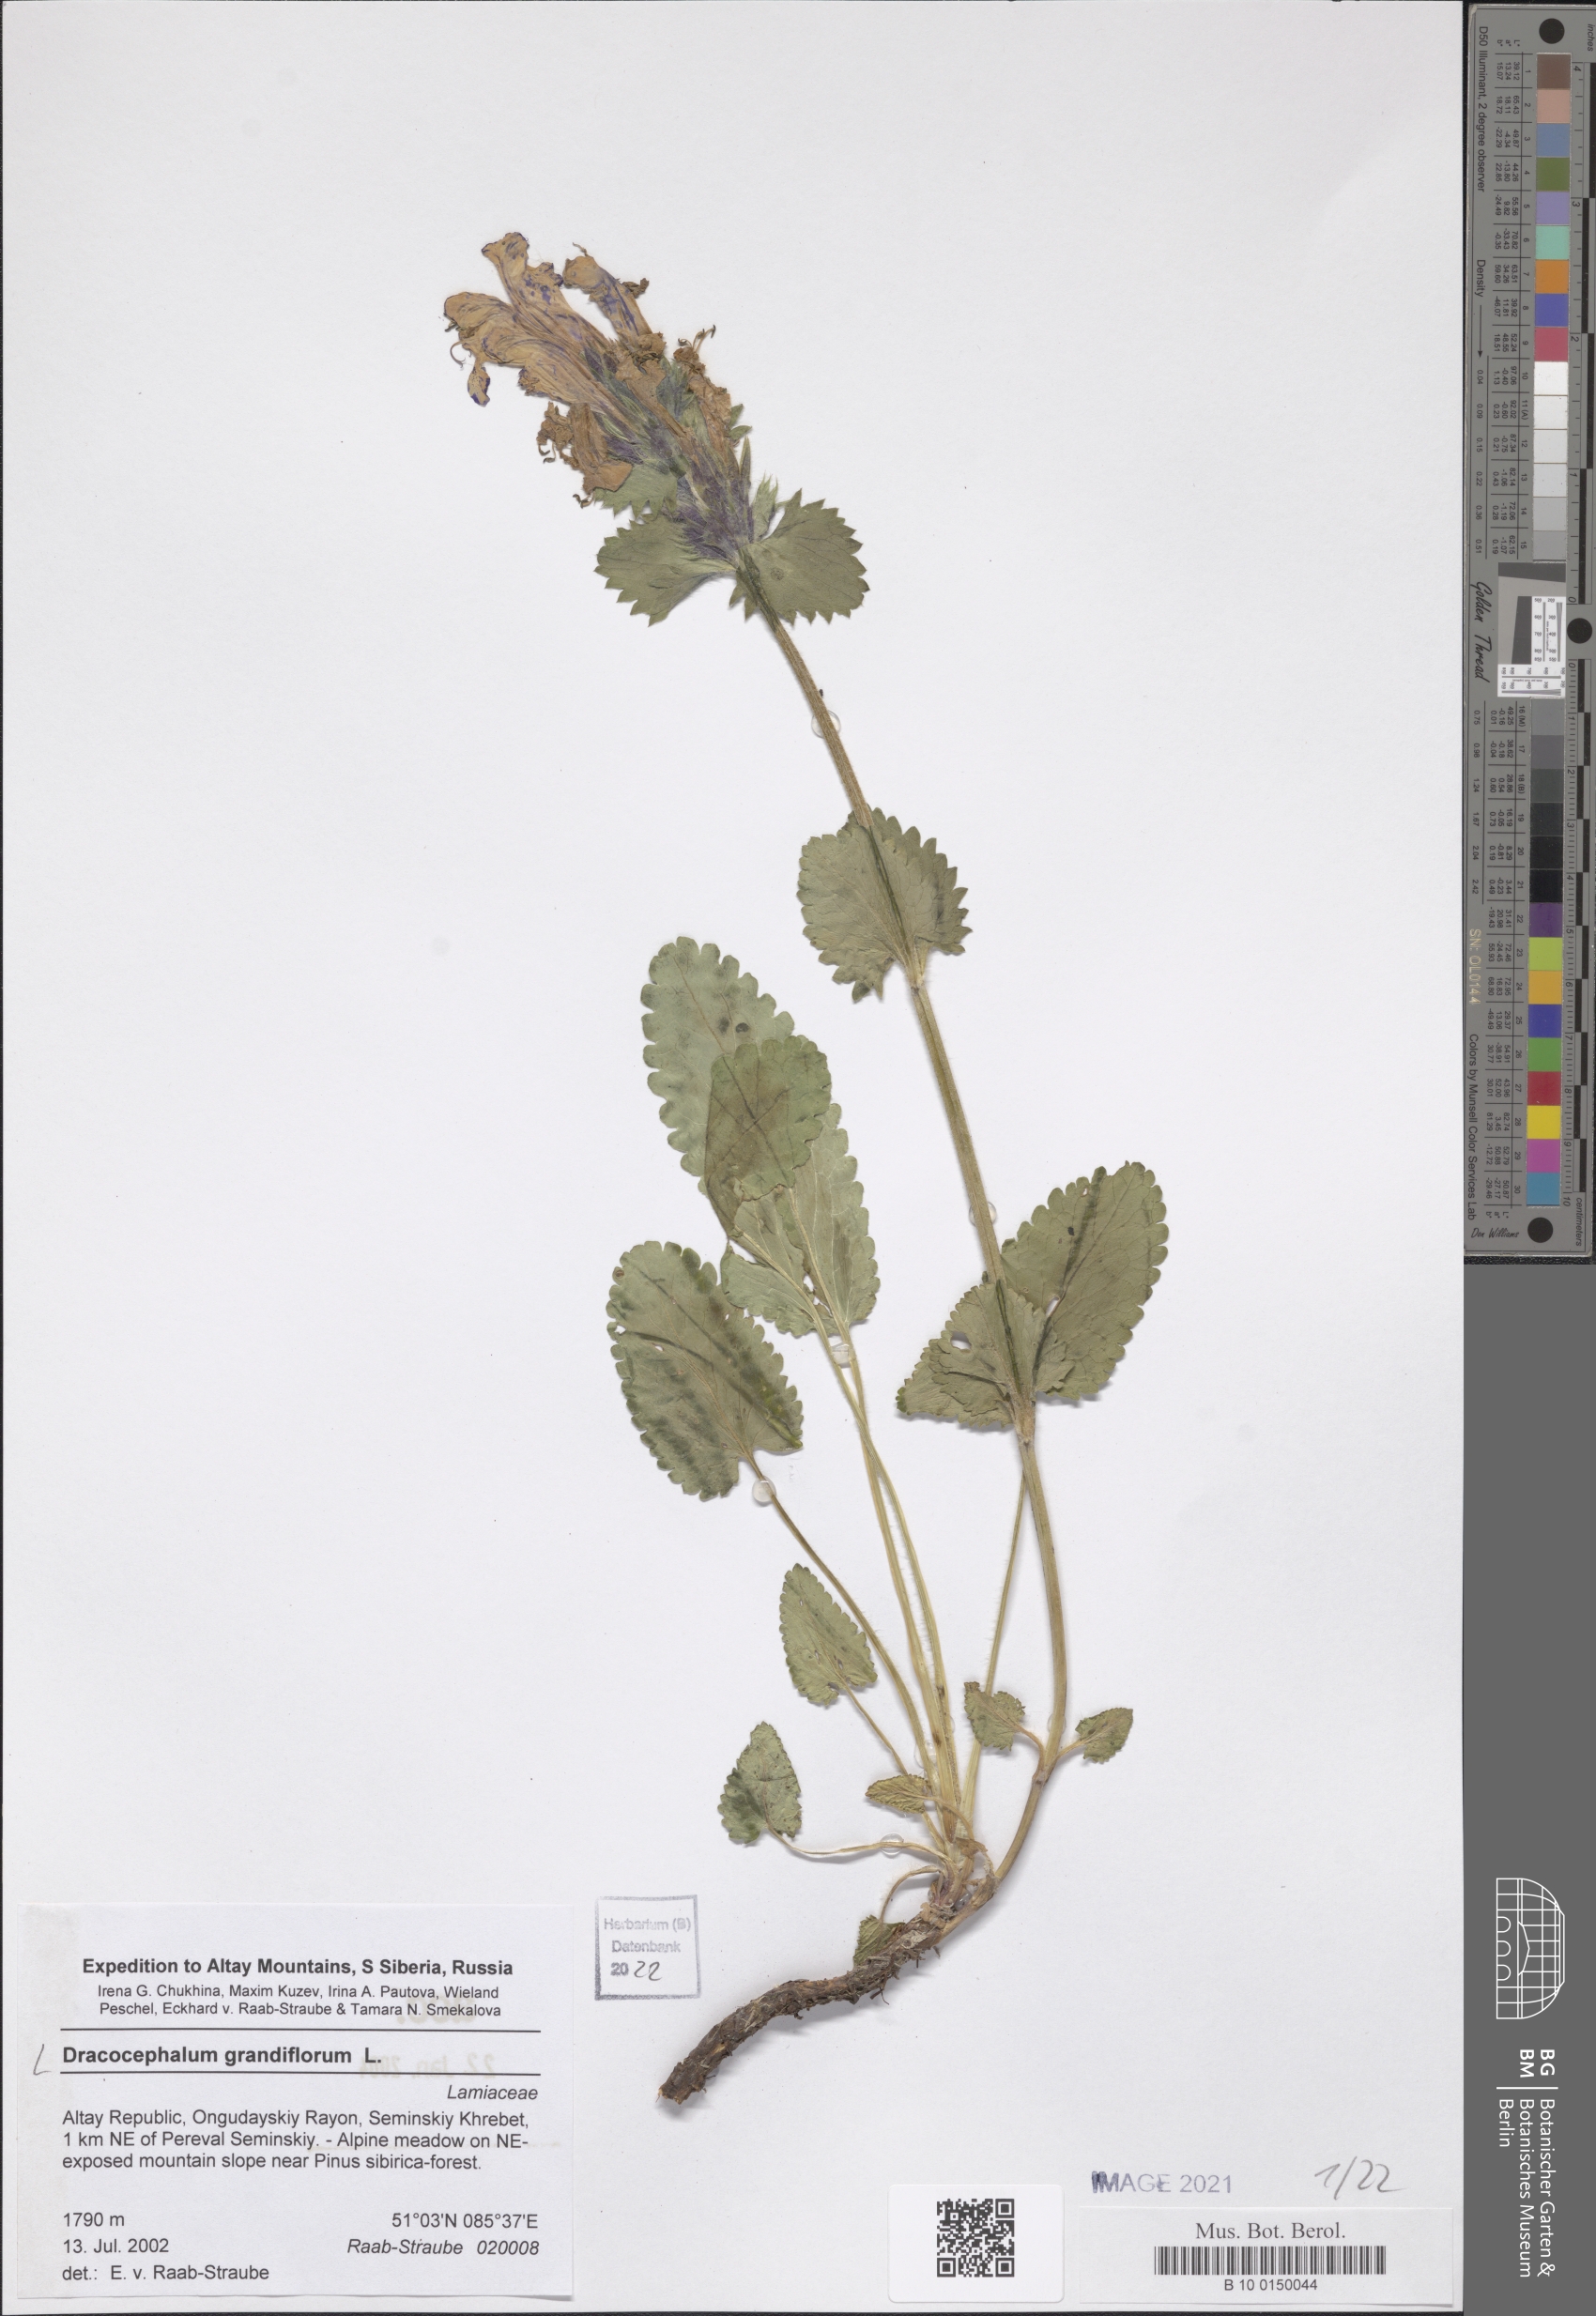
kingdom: Plantae
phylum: Tracheophyta
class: Magnoliopsida
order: Lamiales
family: Lamiaceae
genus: Dracocephalum
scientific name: Dracocephalum grandiflorum
